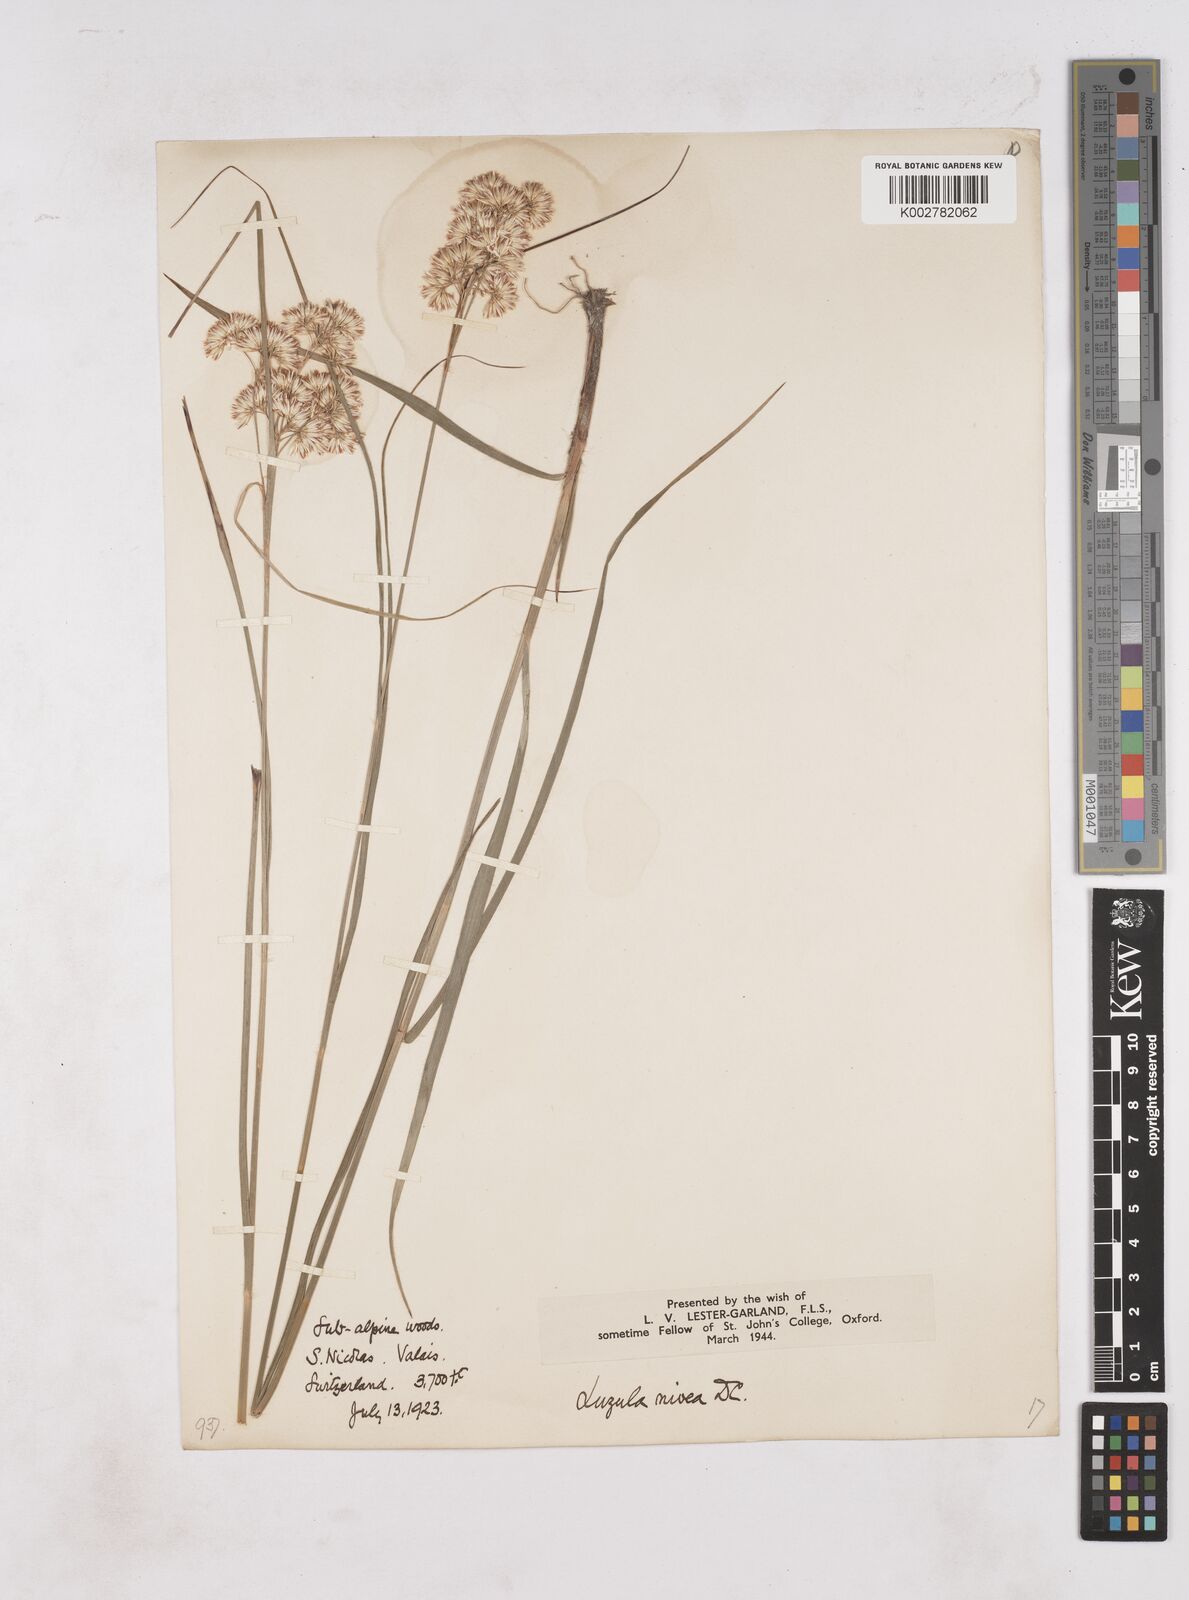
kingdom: Plantae
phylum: Tracheophyta
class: Liliopsida
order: Poales
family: Juncaceae
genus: Luzula
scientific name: Luzula nivea
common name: Snow-white wood-rush
